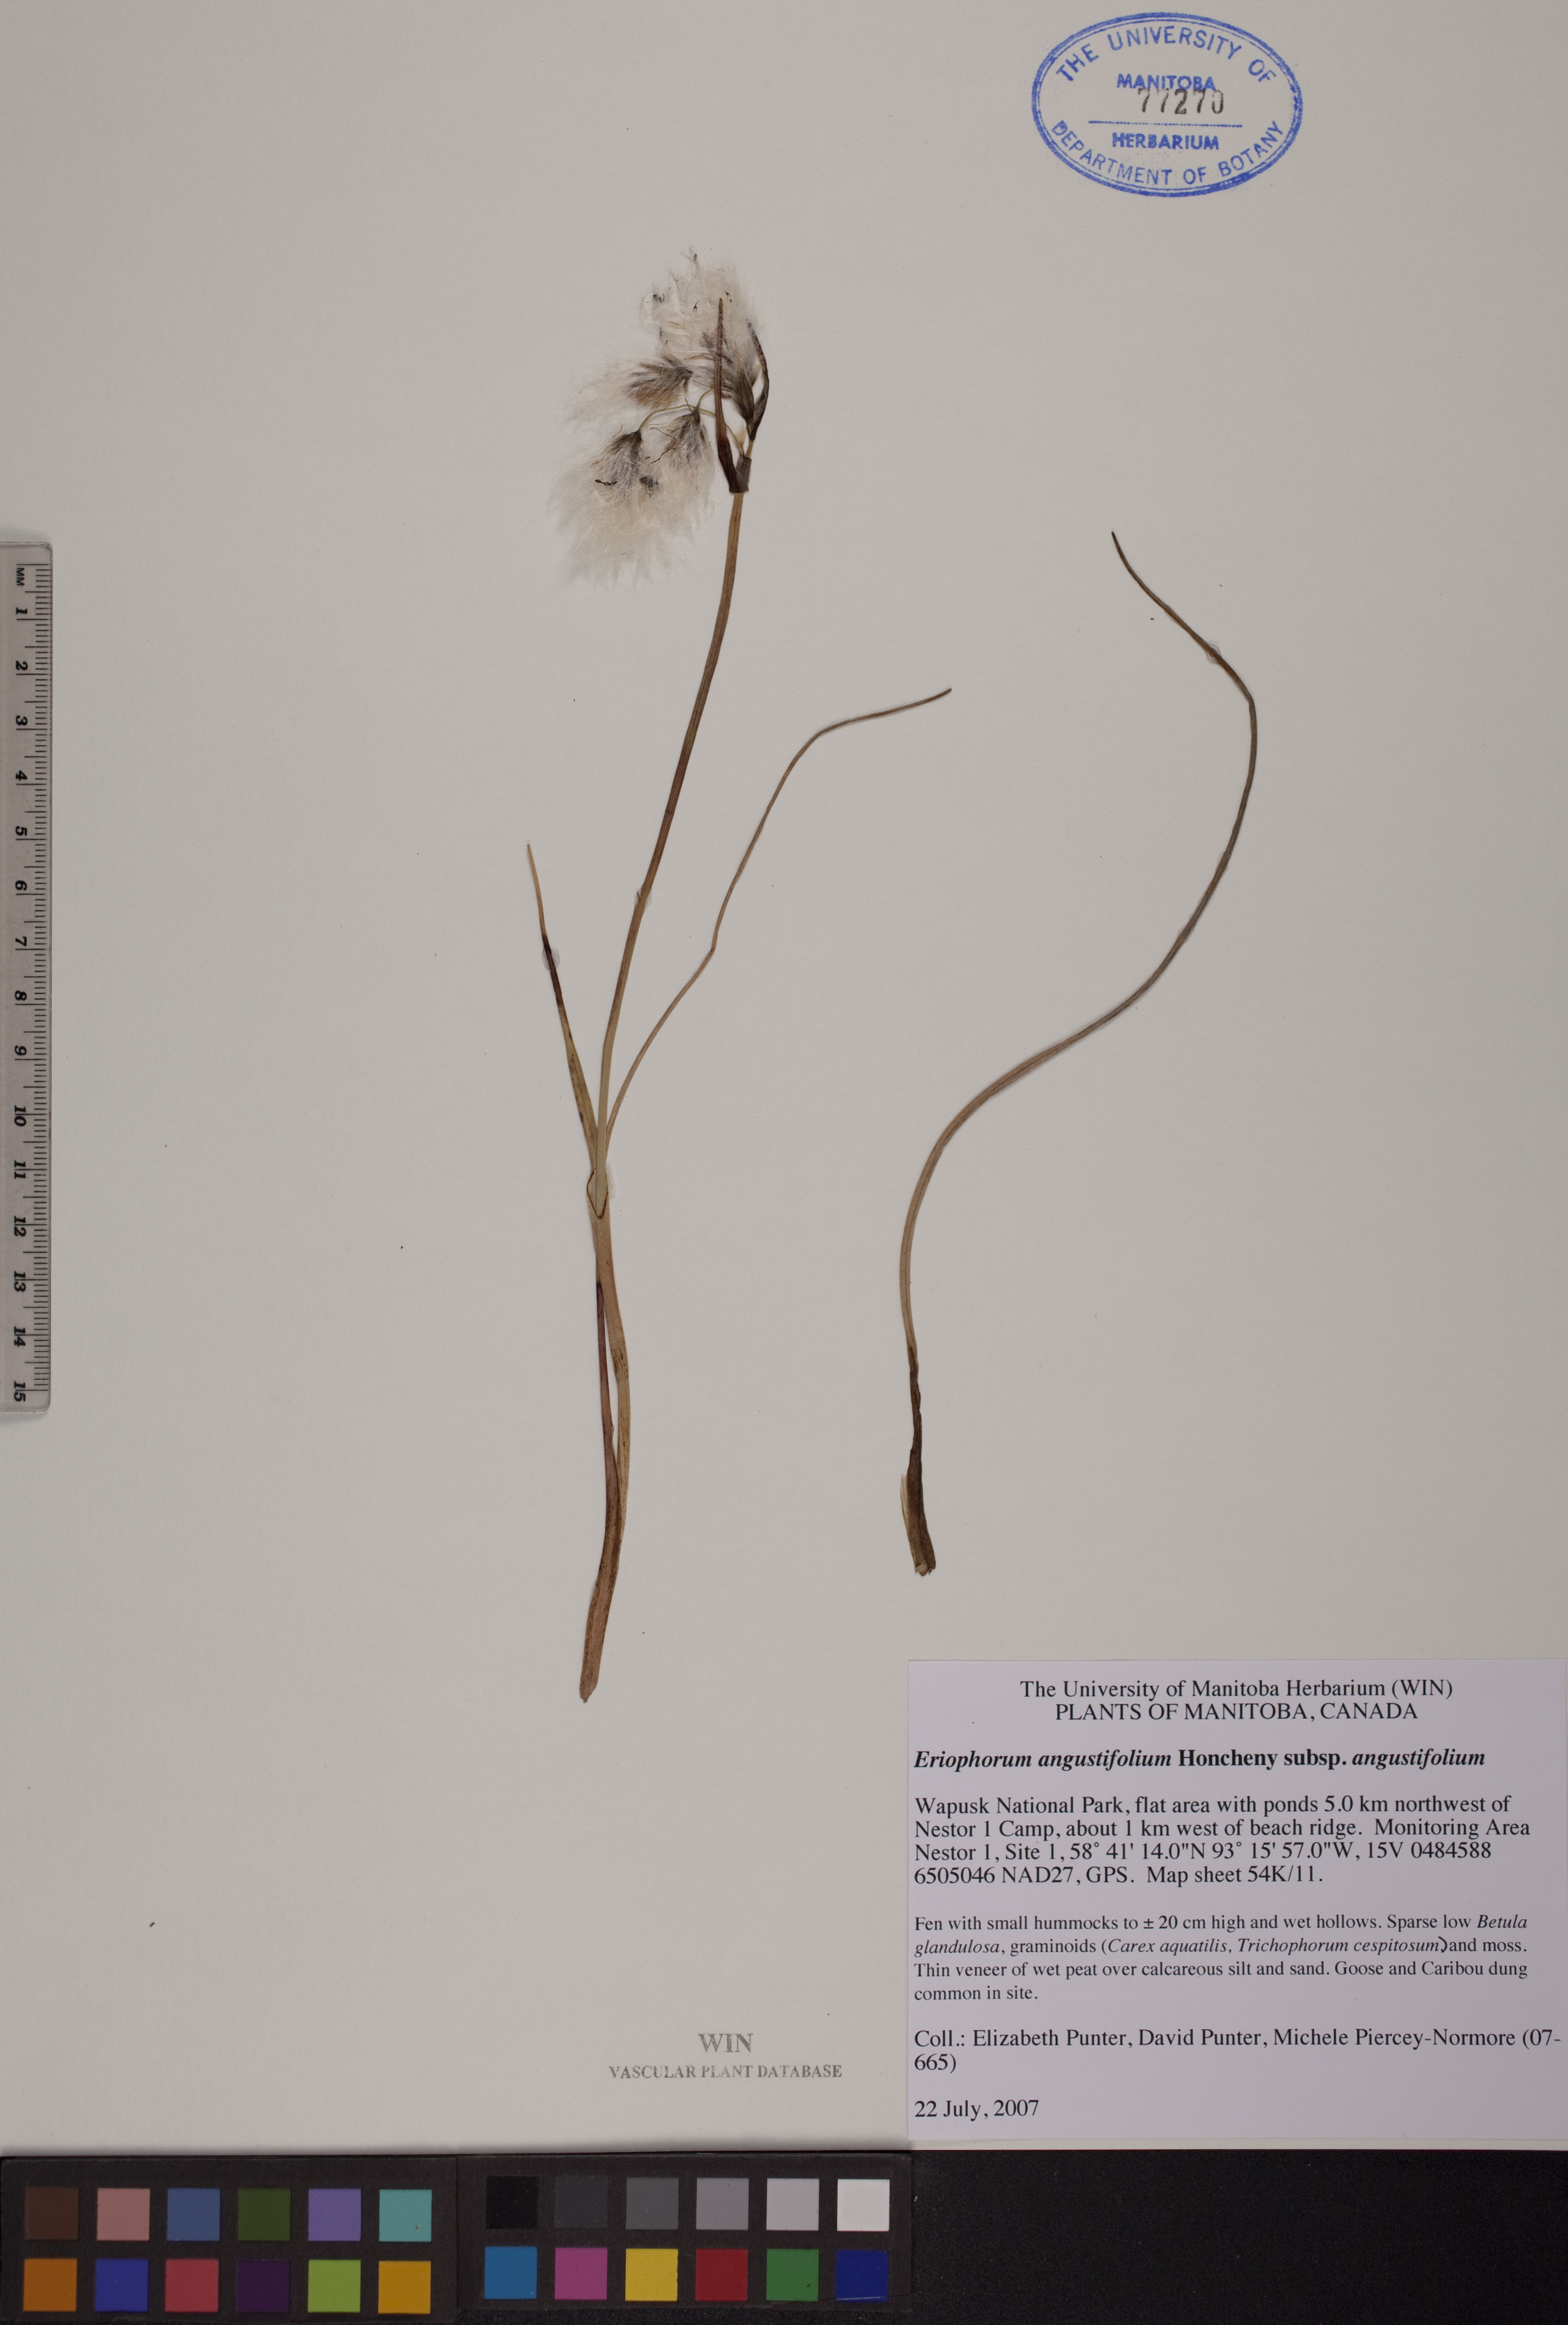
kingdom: Plantae
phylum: Tracheophyta
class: Liliopsida
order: Poales
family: Cyperaceae
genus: Eriophorum
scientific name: Eriophorum angustifolium
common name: Common cottongrass
